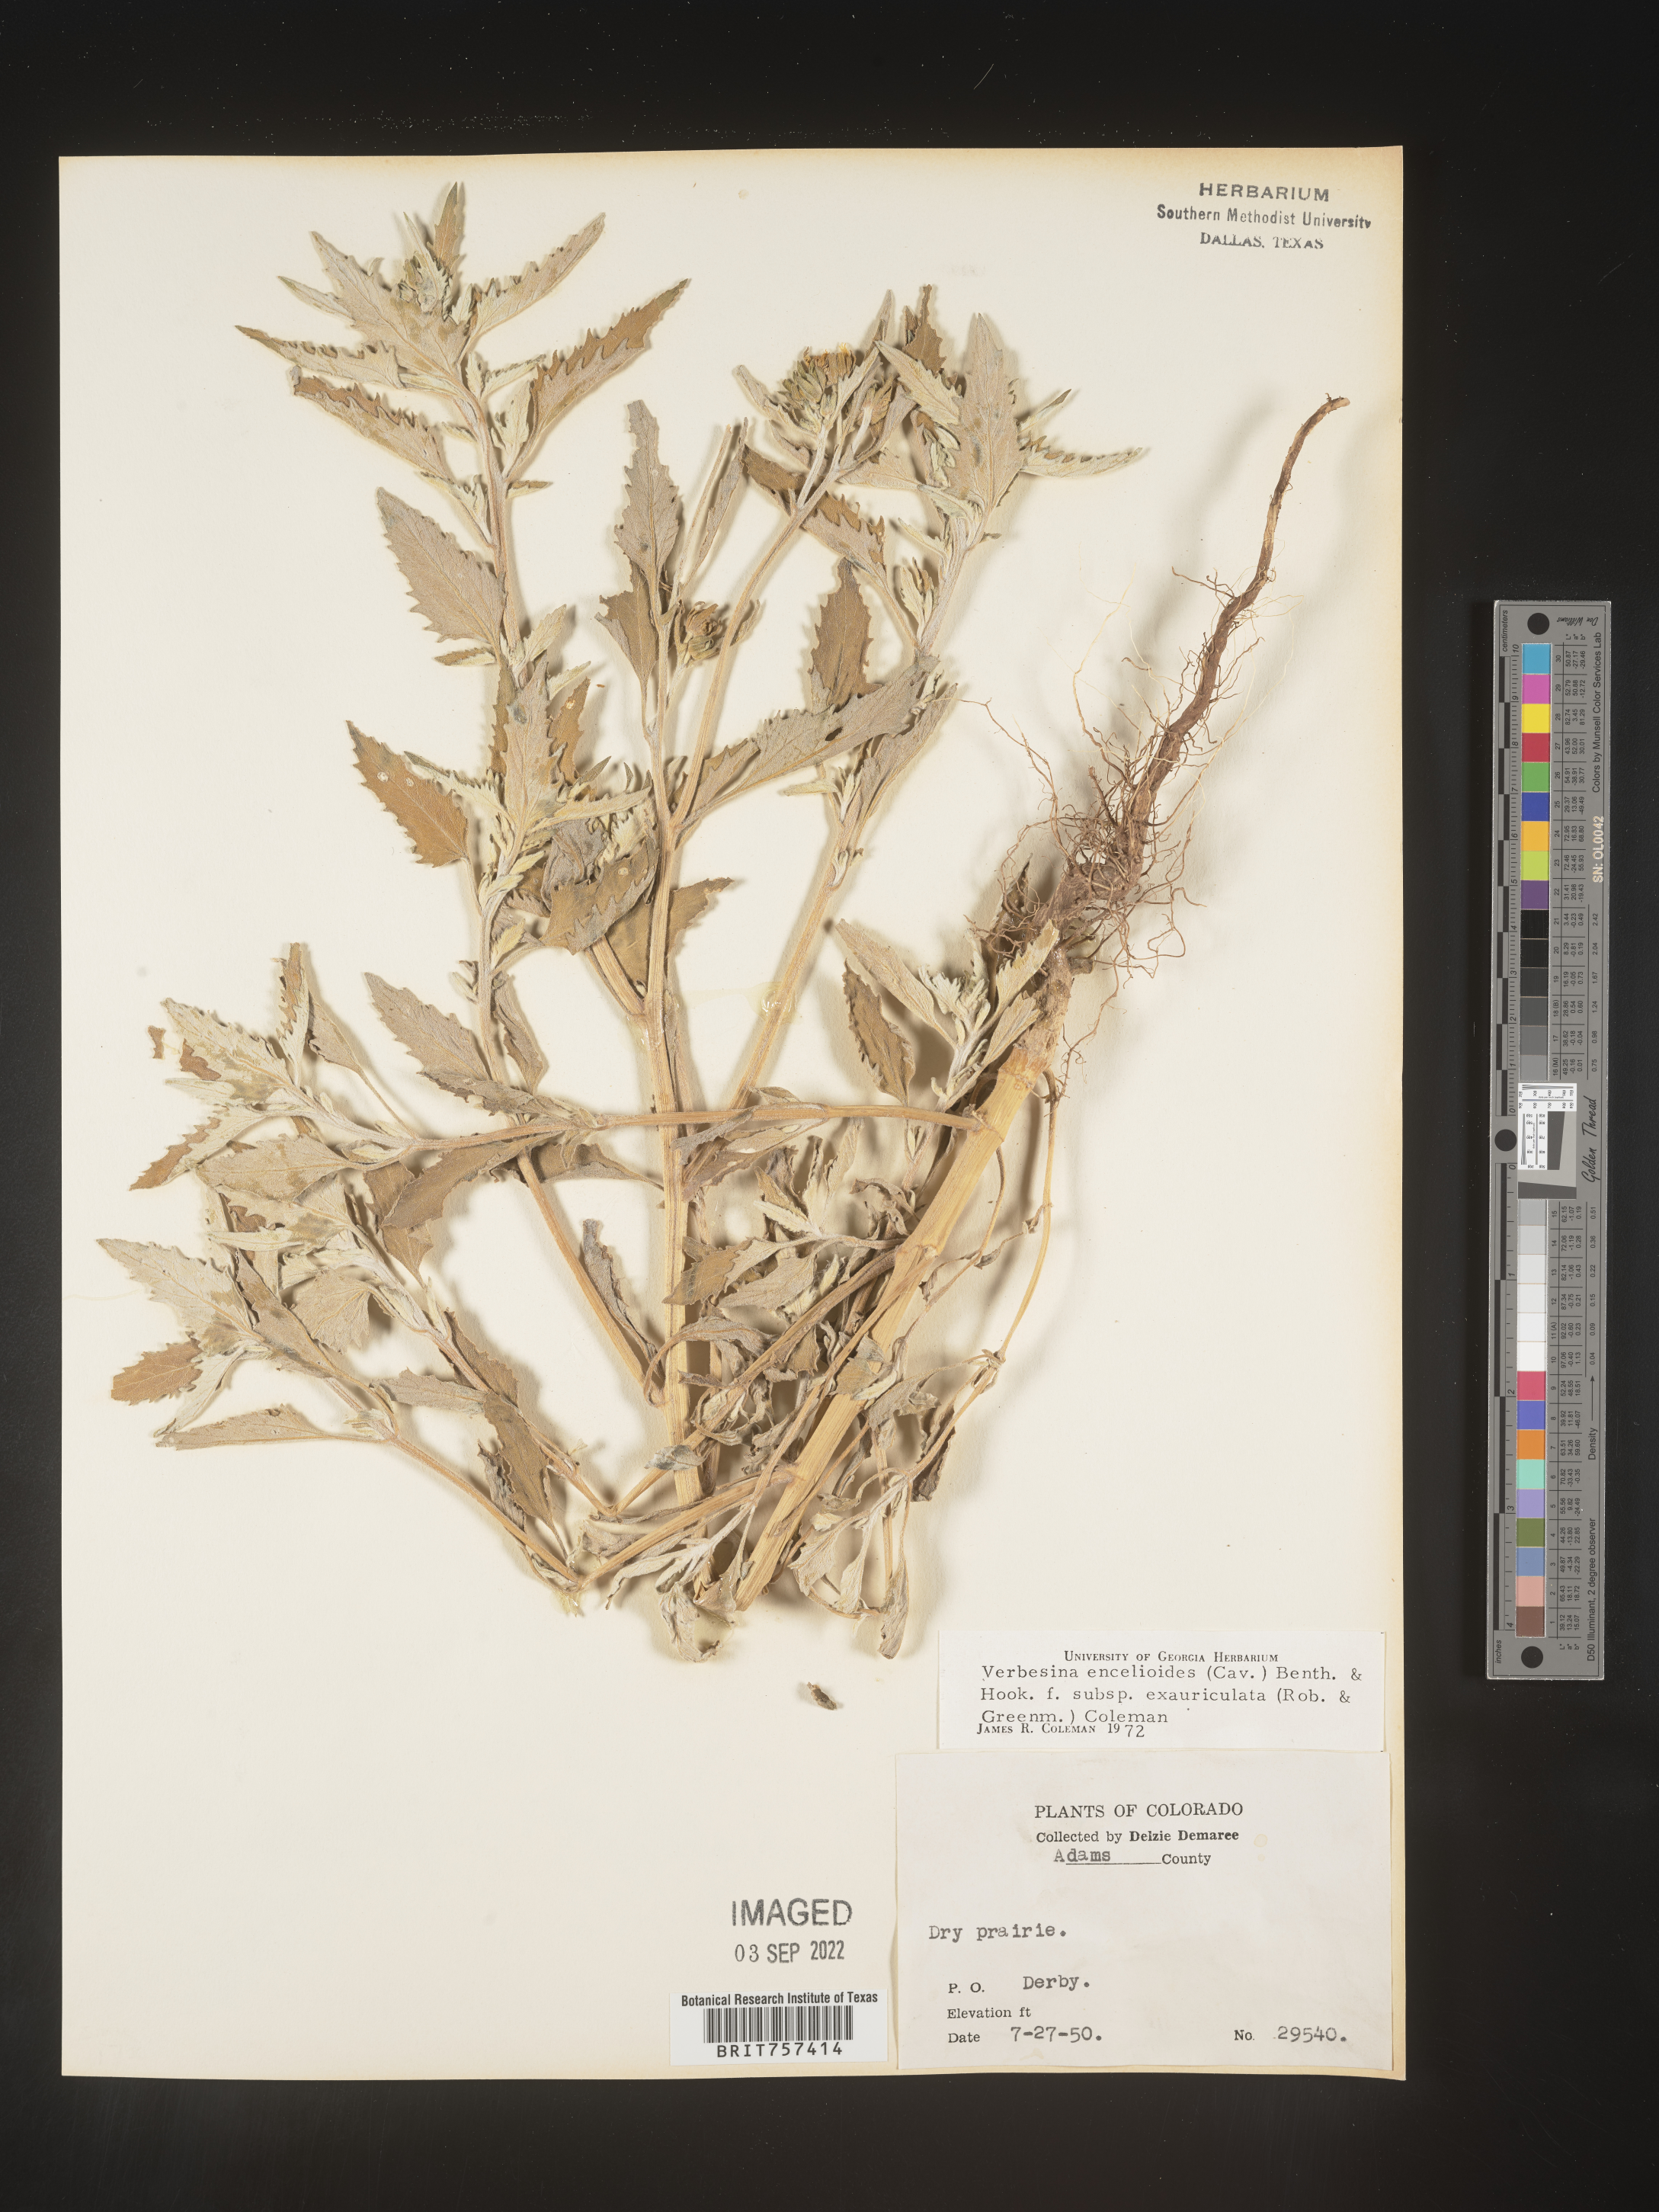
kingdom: Plantae
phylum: Tracheophyta
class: Magnoliopsida
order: Asterales
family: Asteraceae
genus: Verbesina
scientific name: Verbesina encelioides
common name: Golden crownbeard
